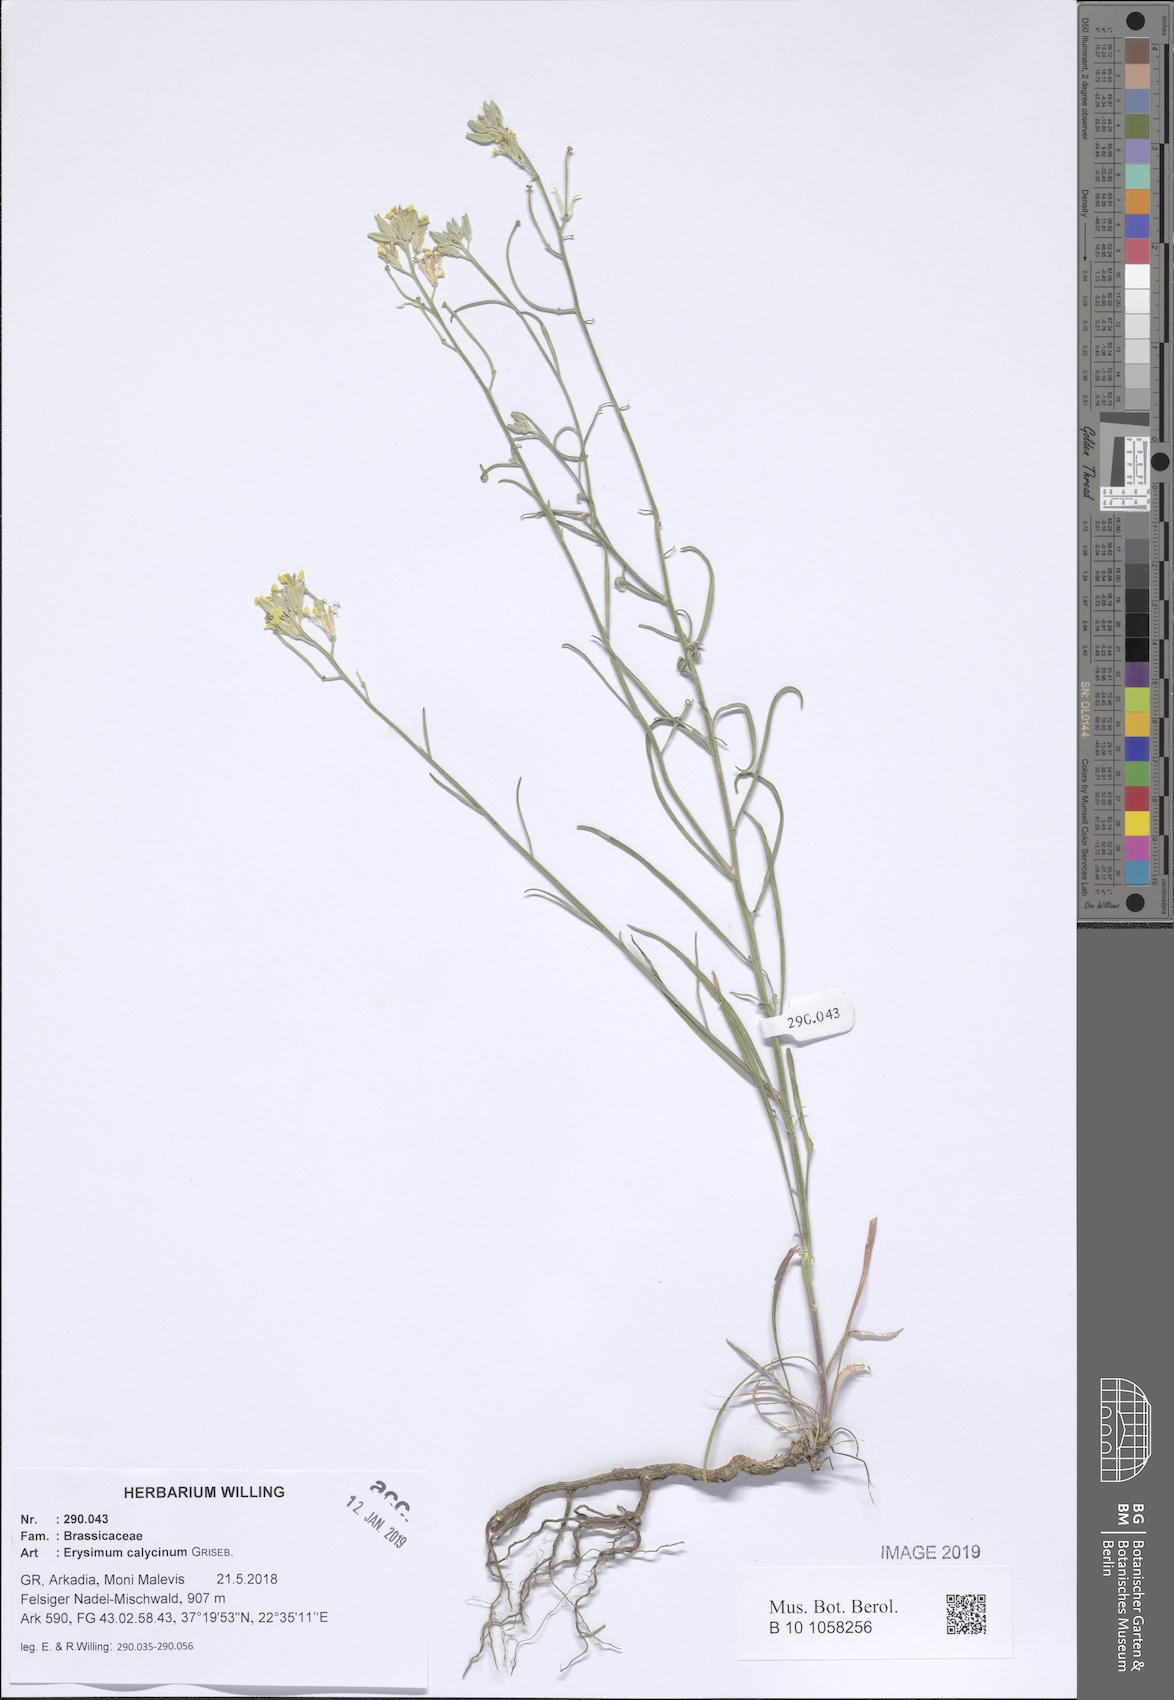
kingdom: Plantae
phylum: Tracheophyta
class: Magnoliopsida
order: Brassicales
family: Brassicaceae
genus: Erysimum
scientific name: Erysimum calycinum
